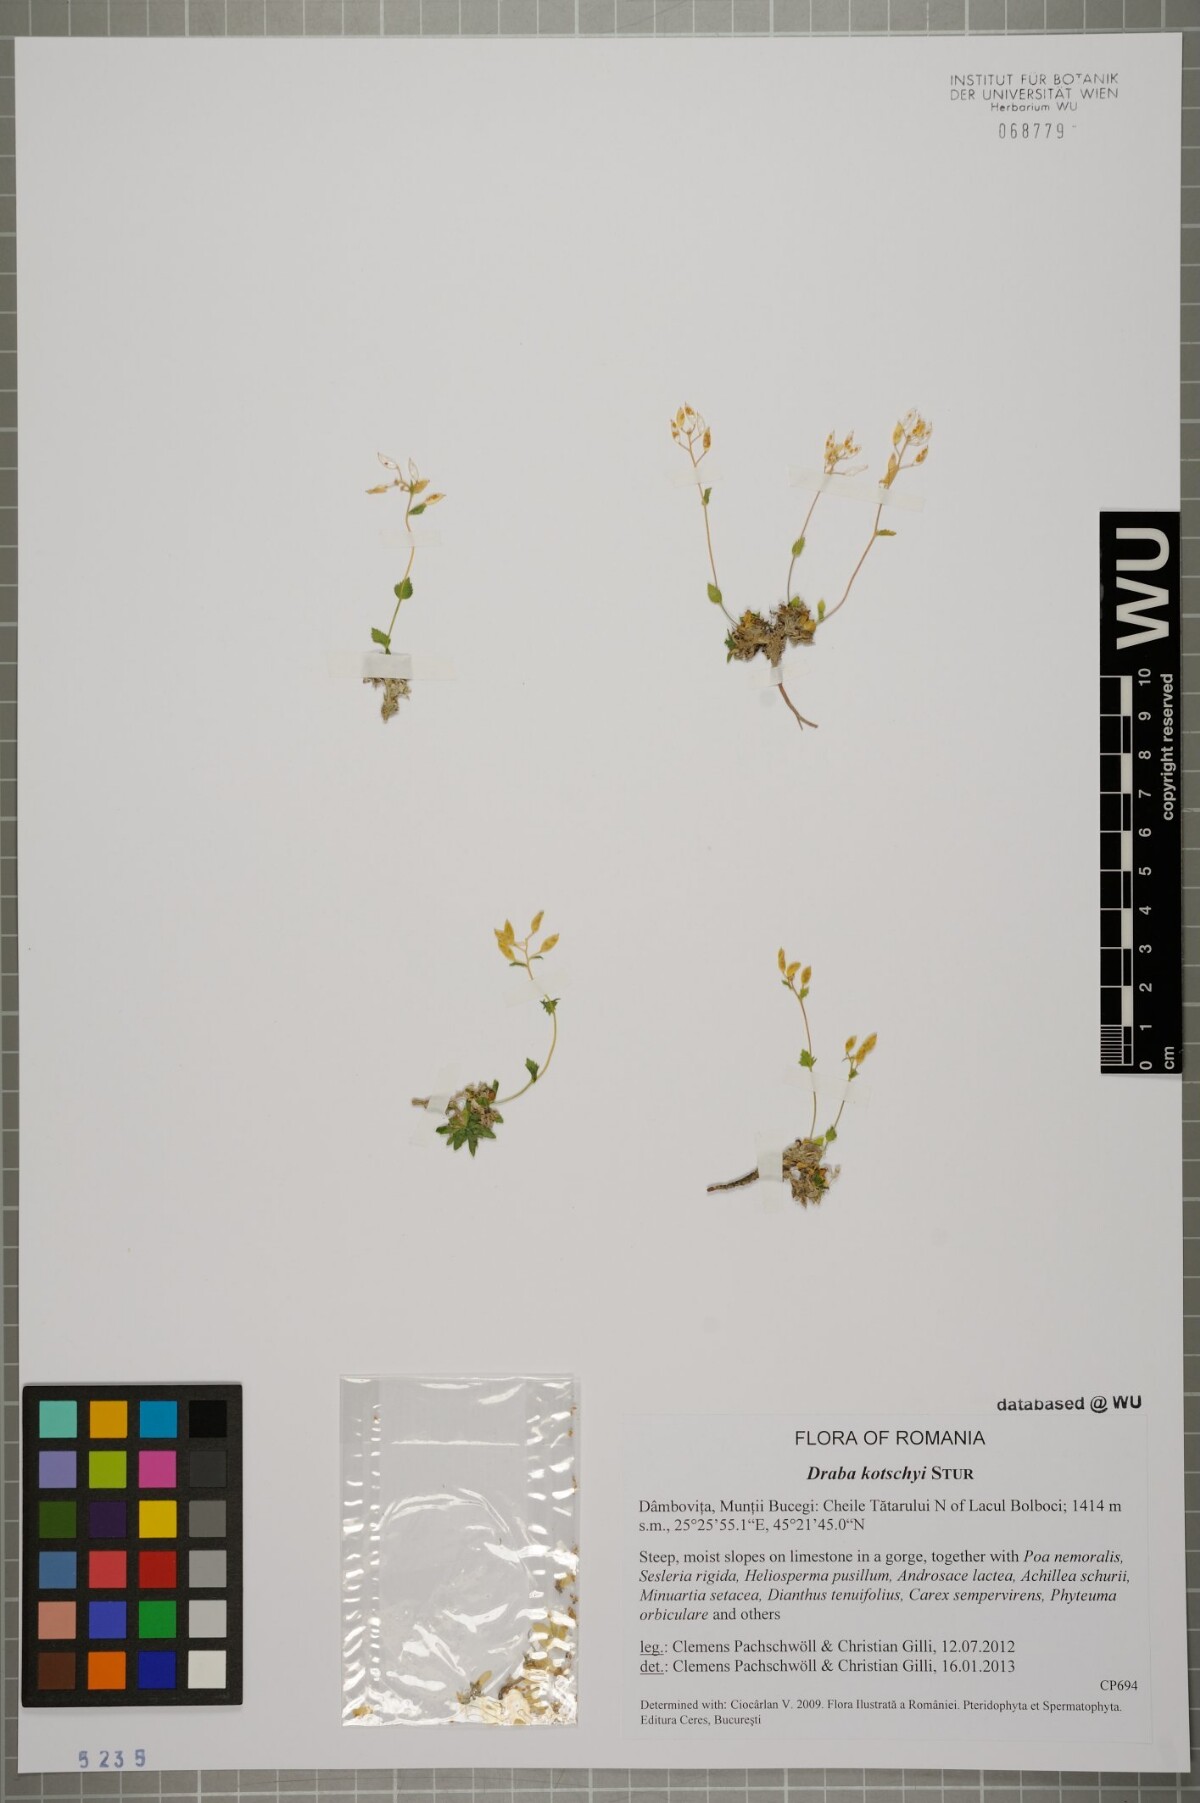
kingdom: Plantae
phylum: Tracheophyta
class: Magnoliopsida
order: Brassicales
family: Brassicaceae
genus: Draba
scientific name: Draba kotschyi
